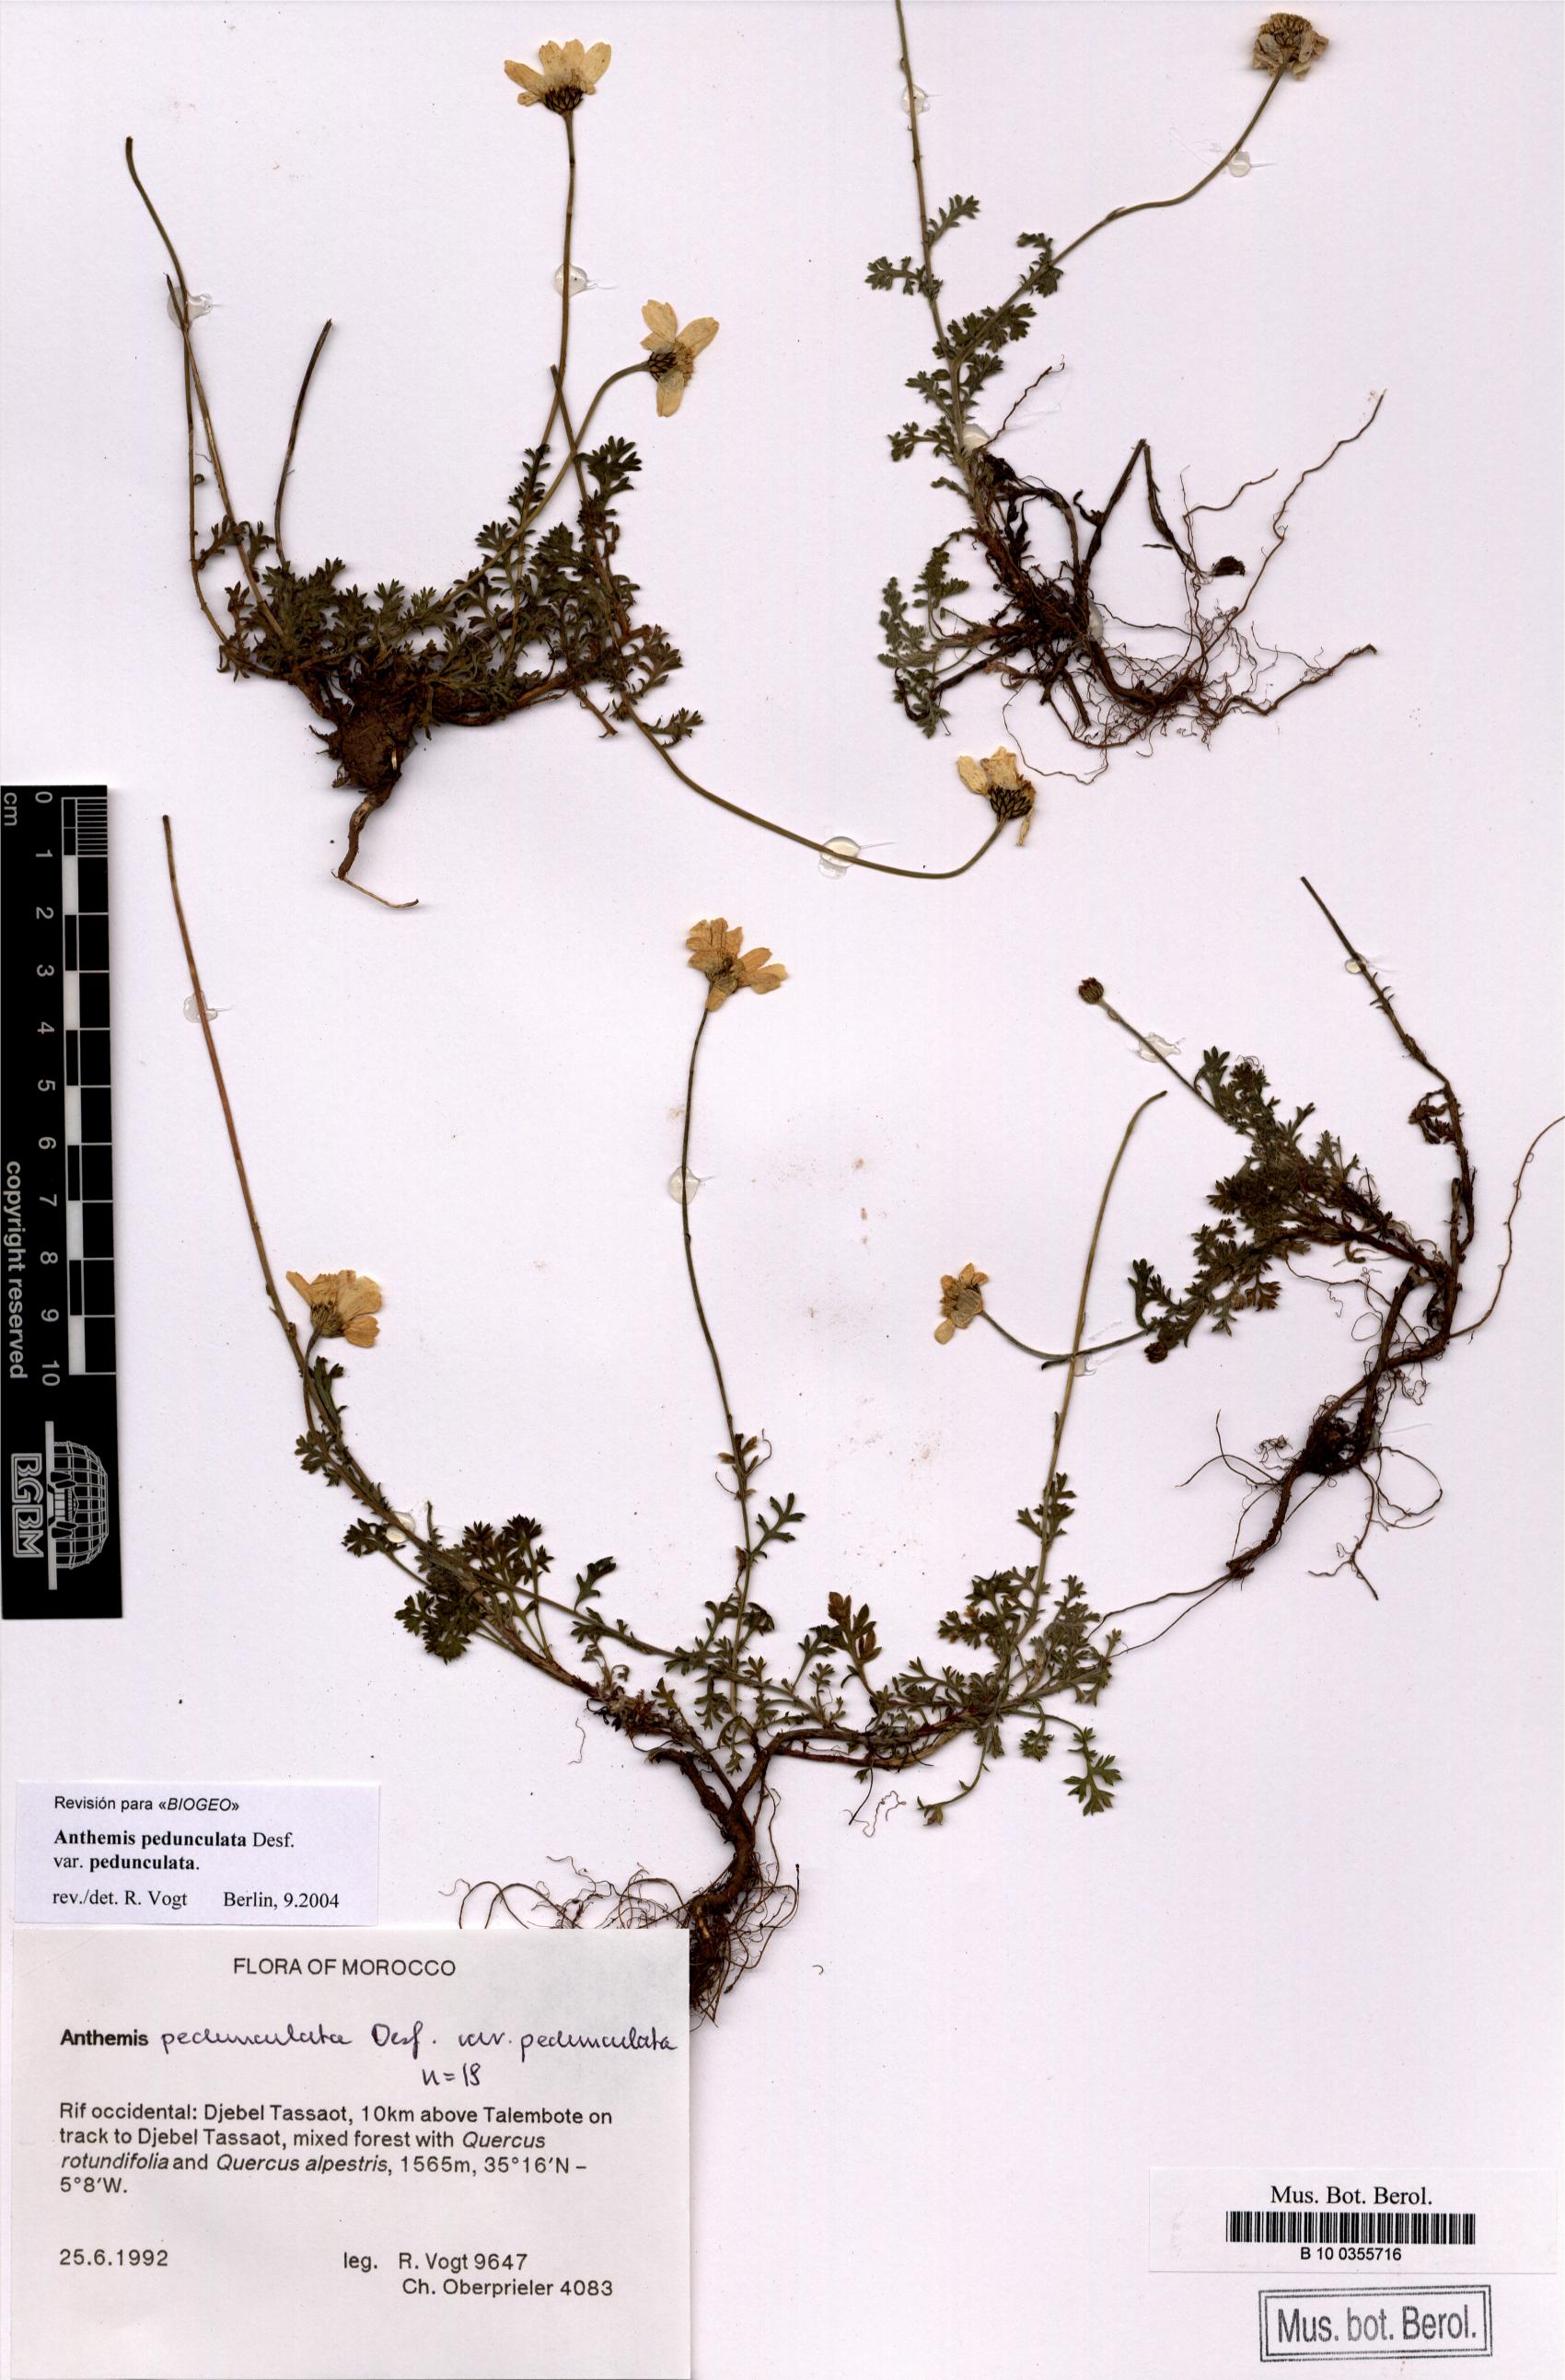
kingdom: Plantae
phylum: Tracheophyta
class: Magnoliopsida
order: Asterales
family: Asteraceae
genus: Anthemis
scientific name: Anthemis pedunculata
